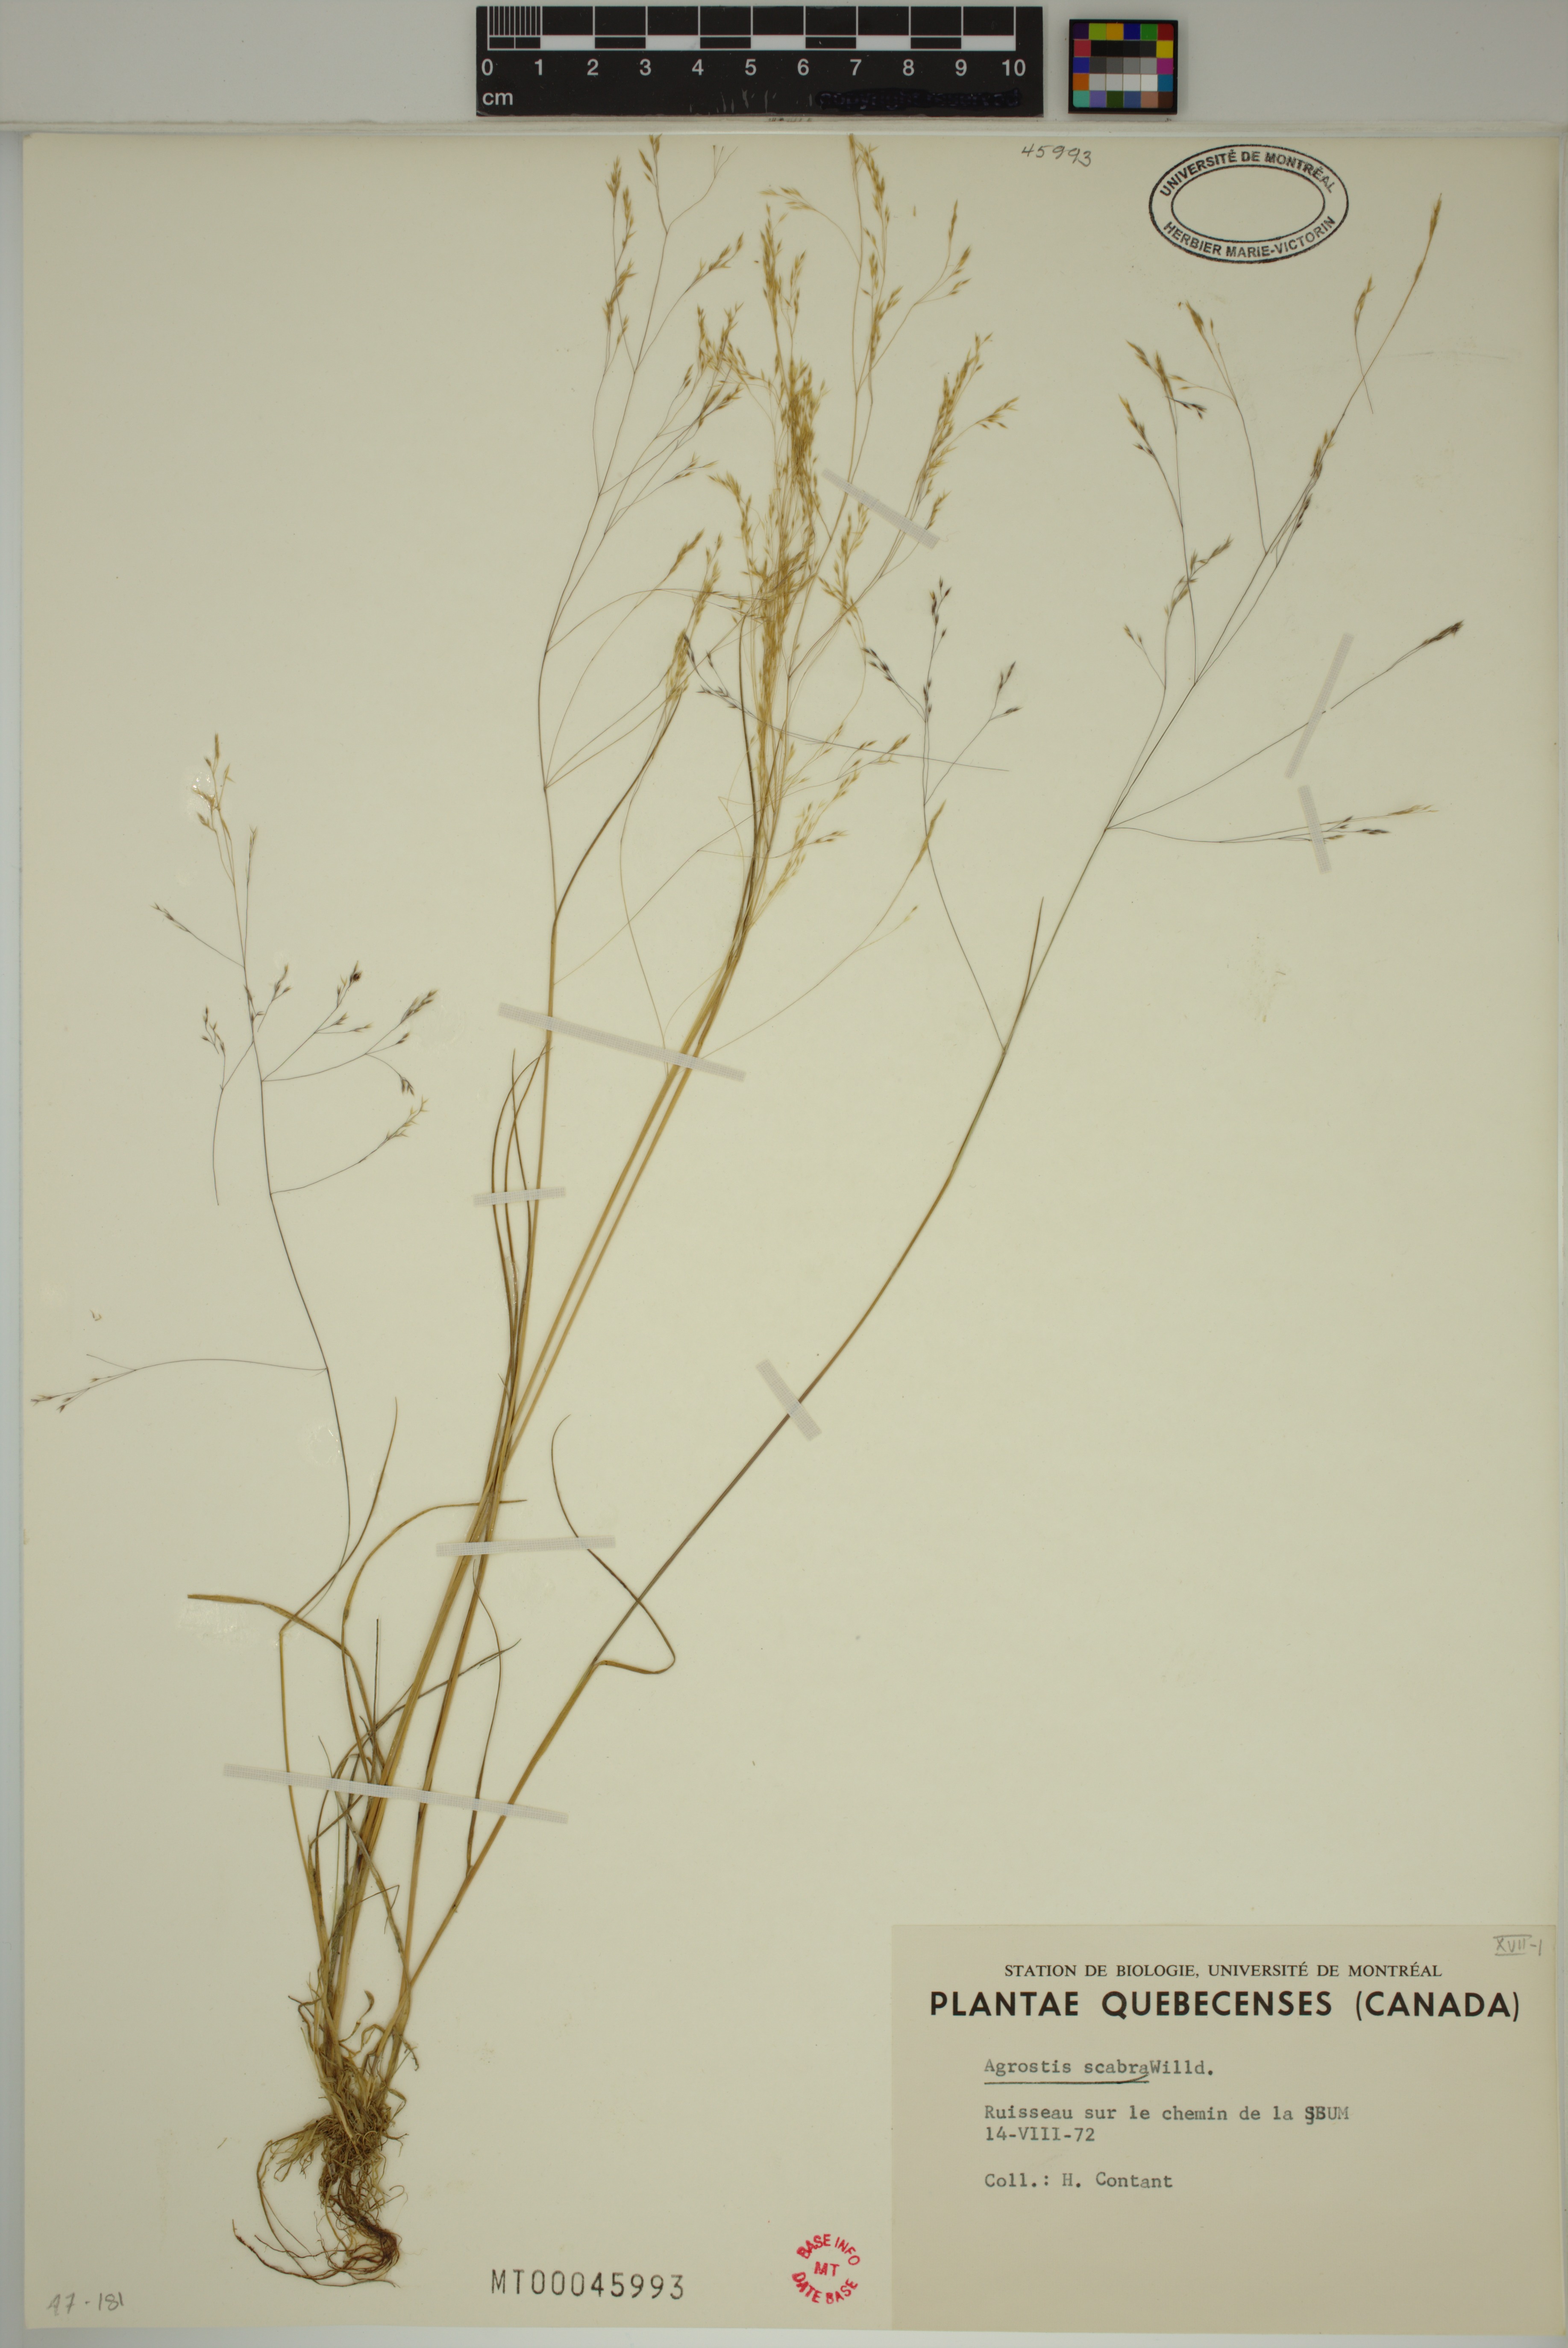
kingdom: Plantae
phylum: Tracheophyta
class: Liliopsida
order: Poales
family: Poaceae
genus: Agrostis
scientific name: Agrostis scabra
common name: Rough bent
